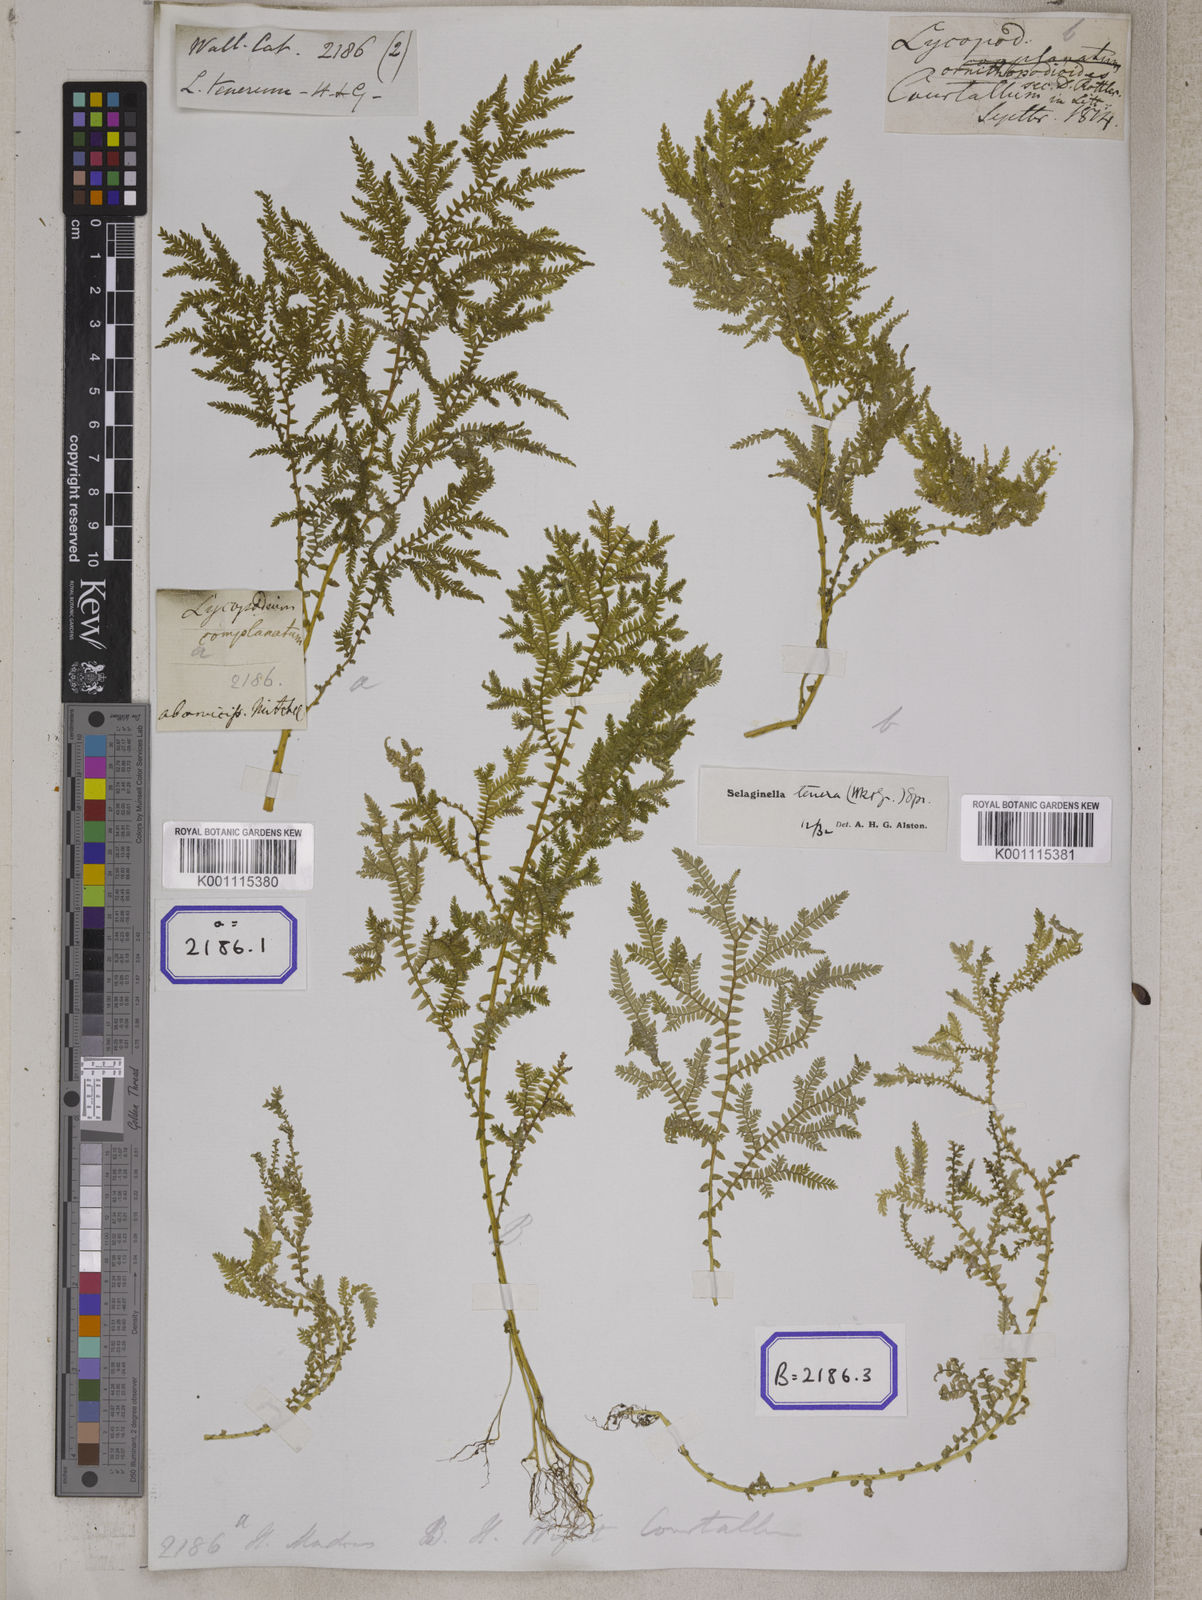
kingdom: Plantae
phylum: Tracheophyta
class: Lycopodiopsida
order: Lycopodiales
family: Lycopodiaceae
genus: Diphasiastrum
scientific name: Diphasiastrum complanatum
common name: Northern running-pine
